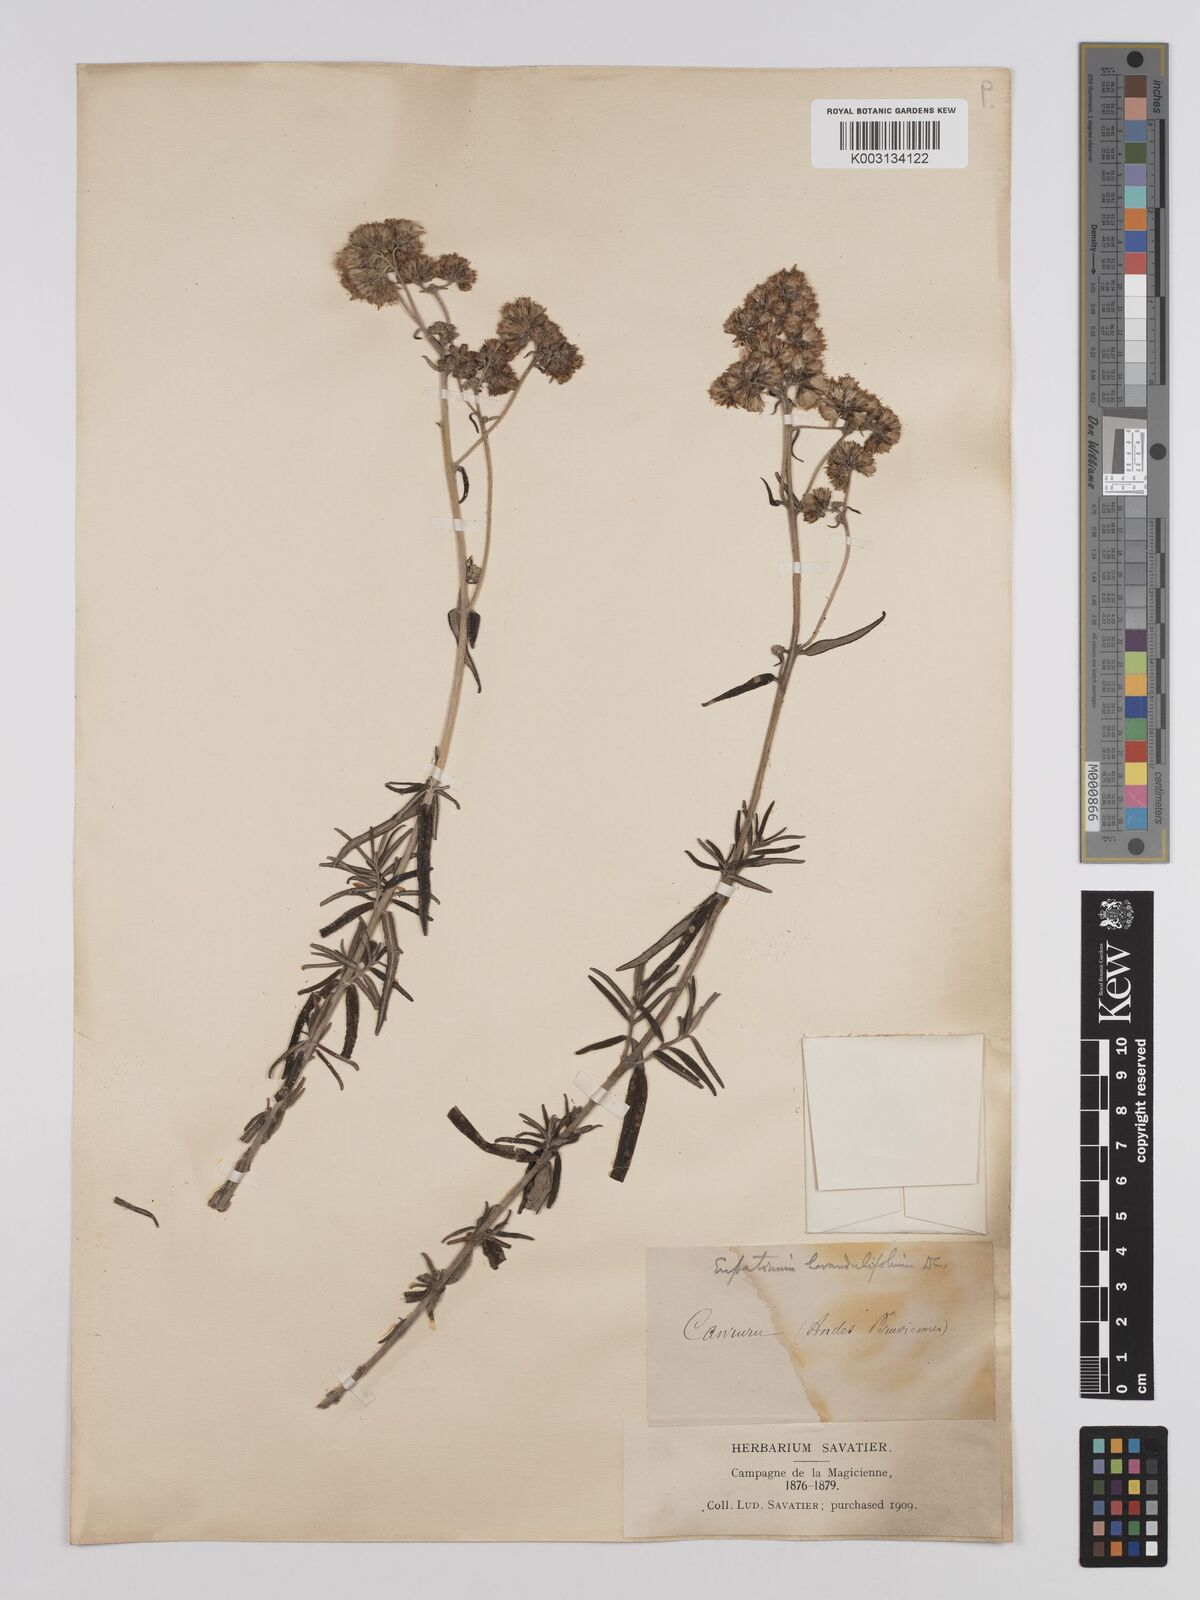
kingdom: Plantae
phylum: Tracheophyta
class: Magnoliopsida
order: Asterales
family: Asteraceae
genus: Cronquistianthus
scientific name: Cronquistianthus lavandulifolius
